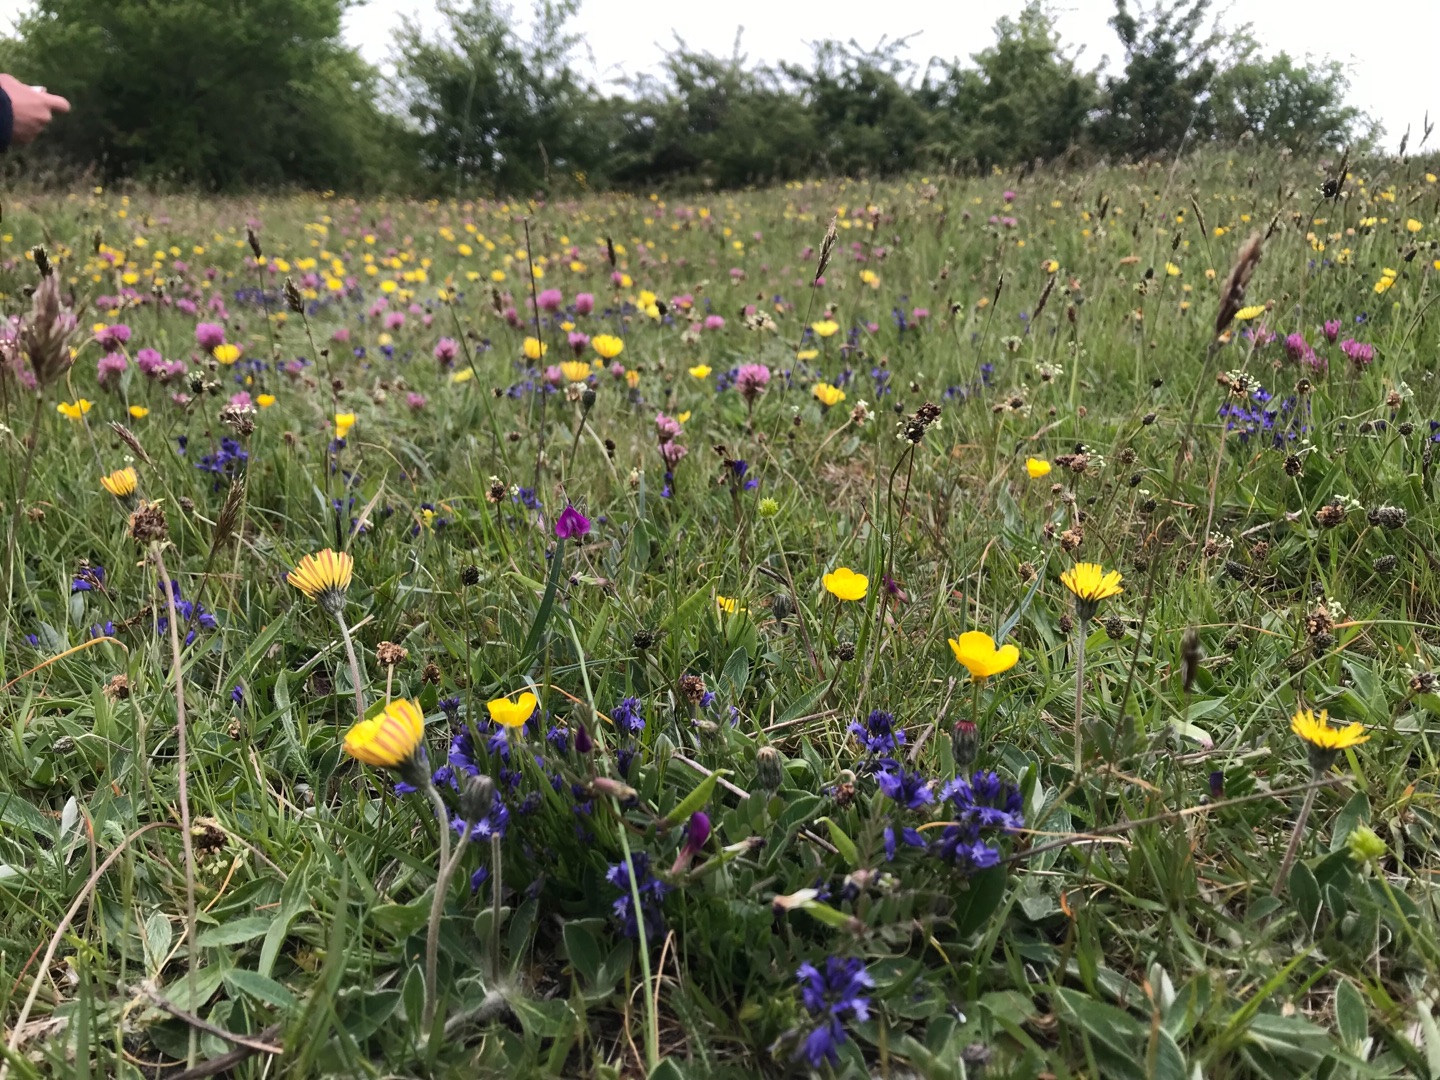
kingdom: Plantae
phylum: Tracheophyta
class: Magnoliopsida
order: Fabales
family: Polygalaceae
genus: Polygala
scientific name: Polygala vulgaris
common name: Almindelig mælkeurt
